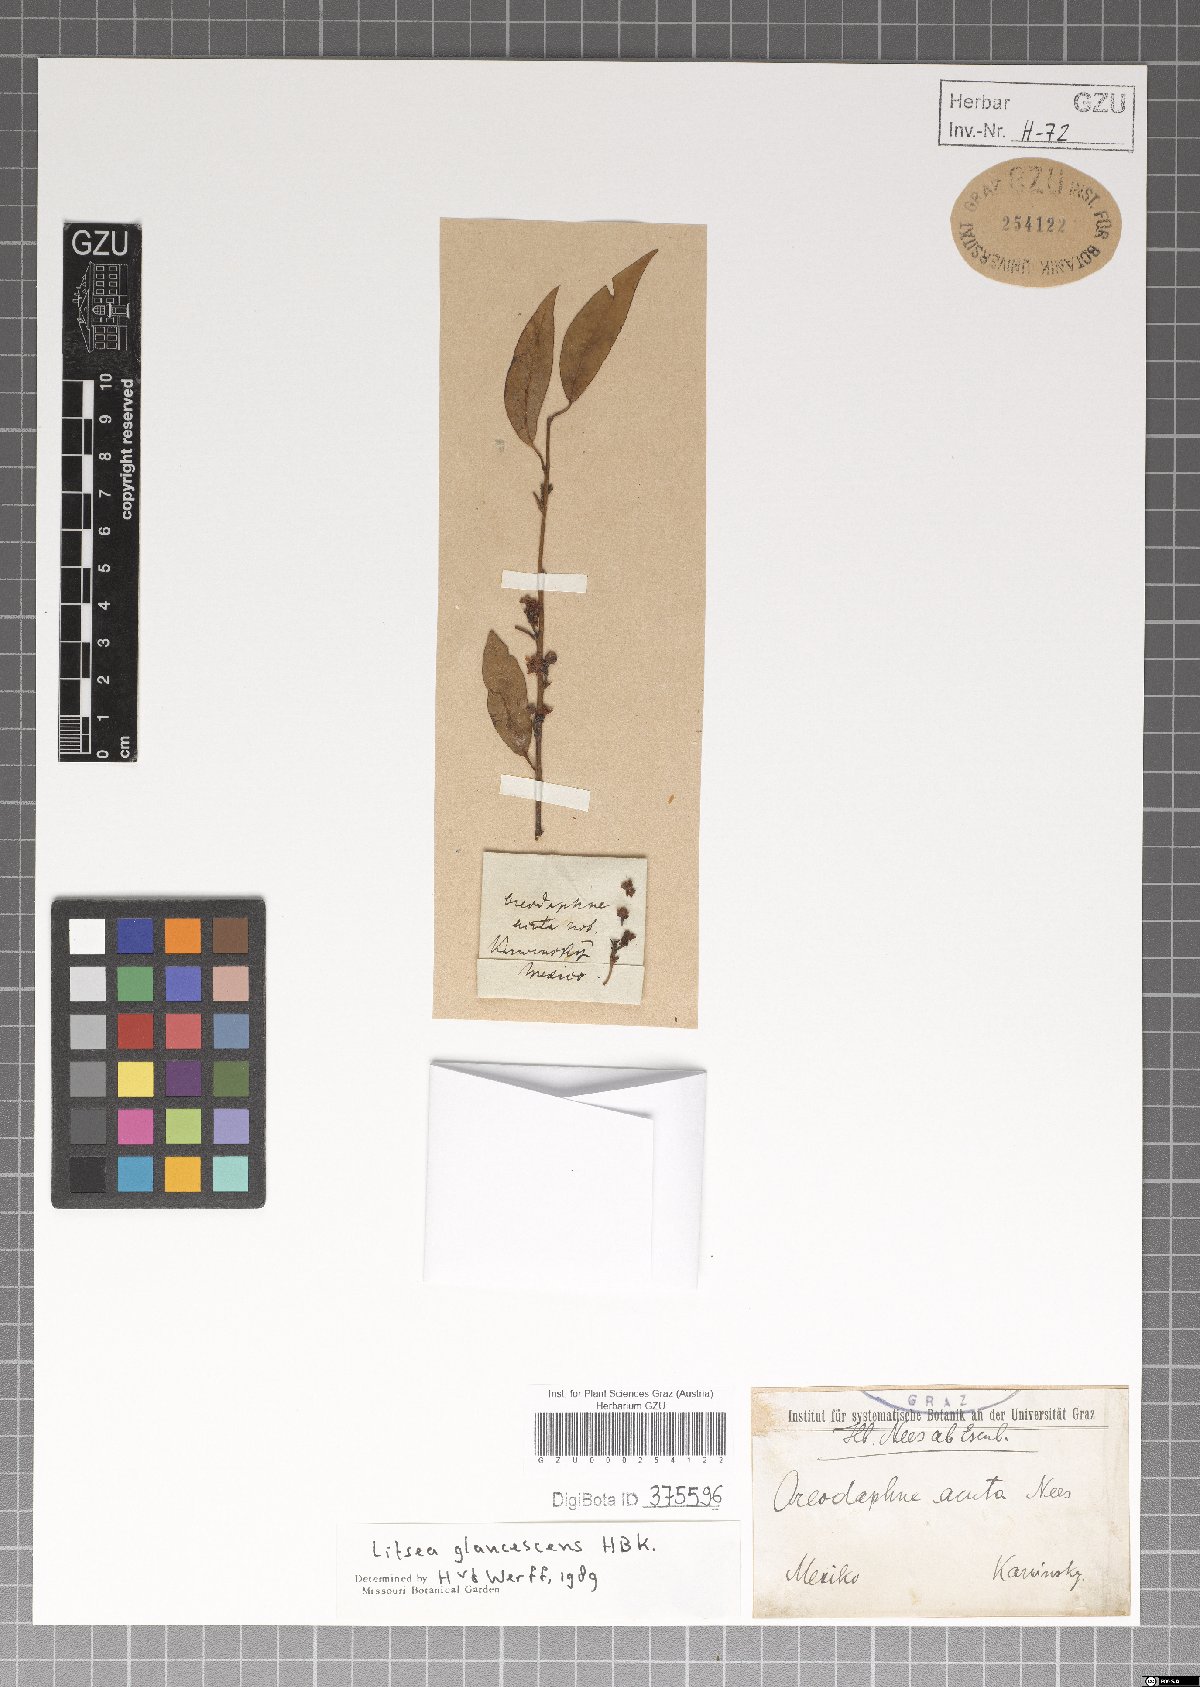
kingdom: Plantae
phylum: Tracheophyta
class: Magnoliopsida
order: Laurales
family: Lauraceae
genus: Licaria
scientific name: Licaria triandra
